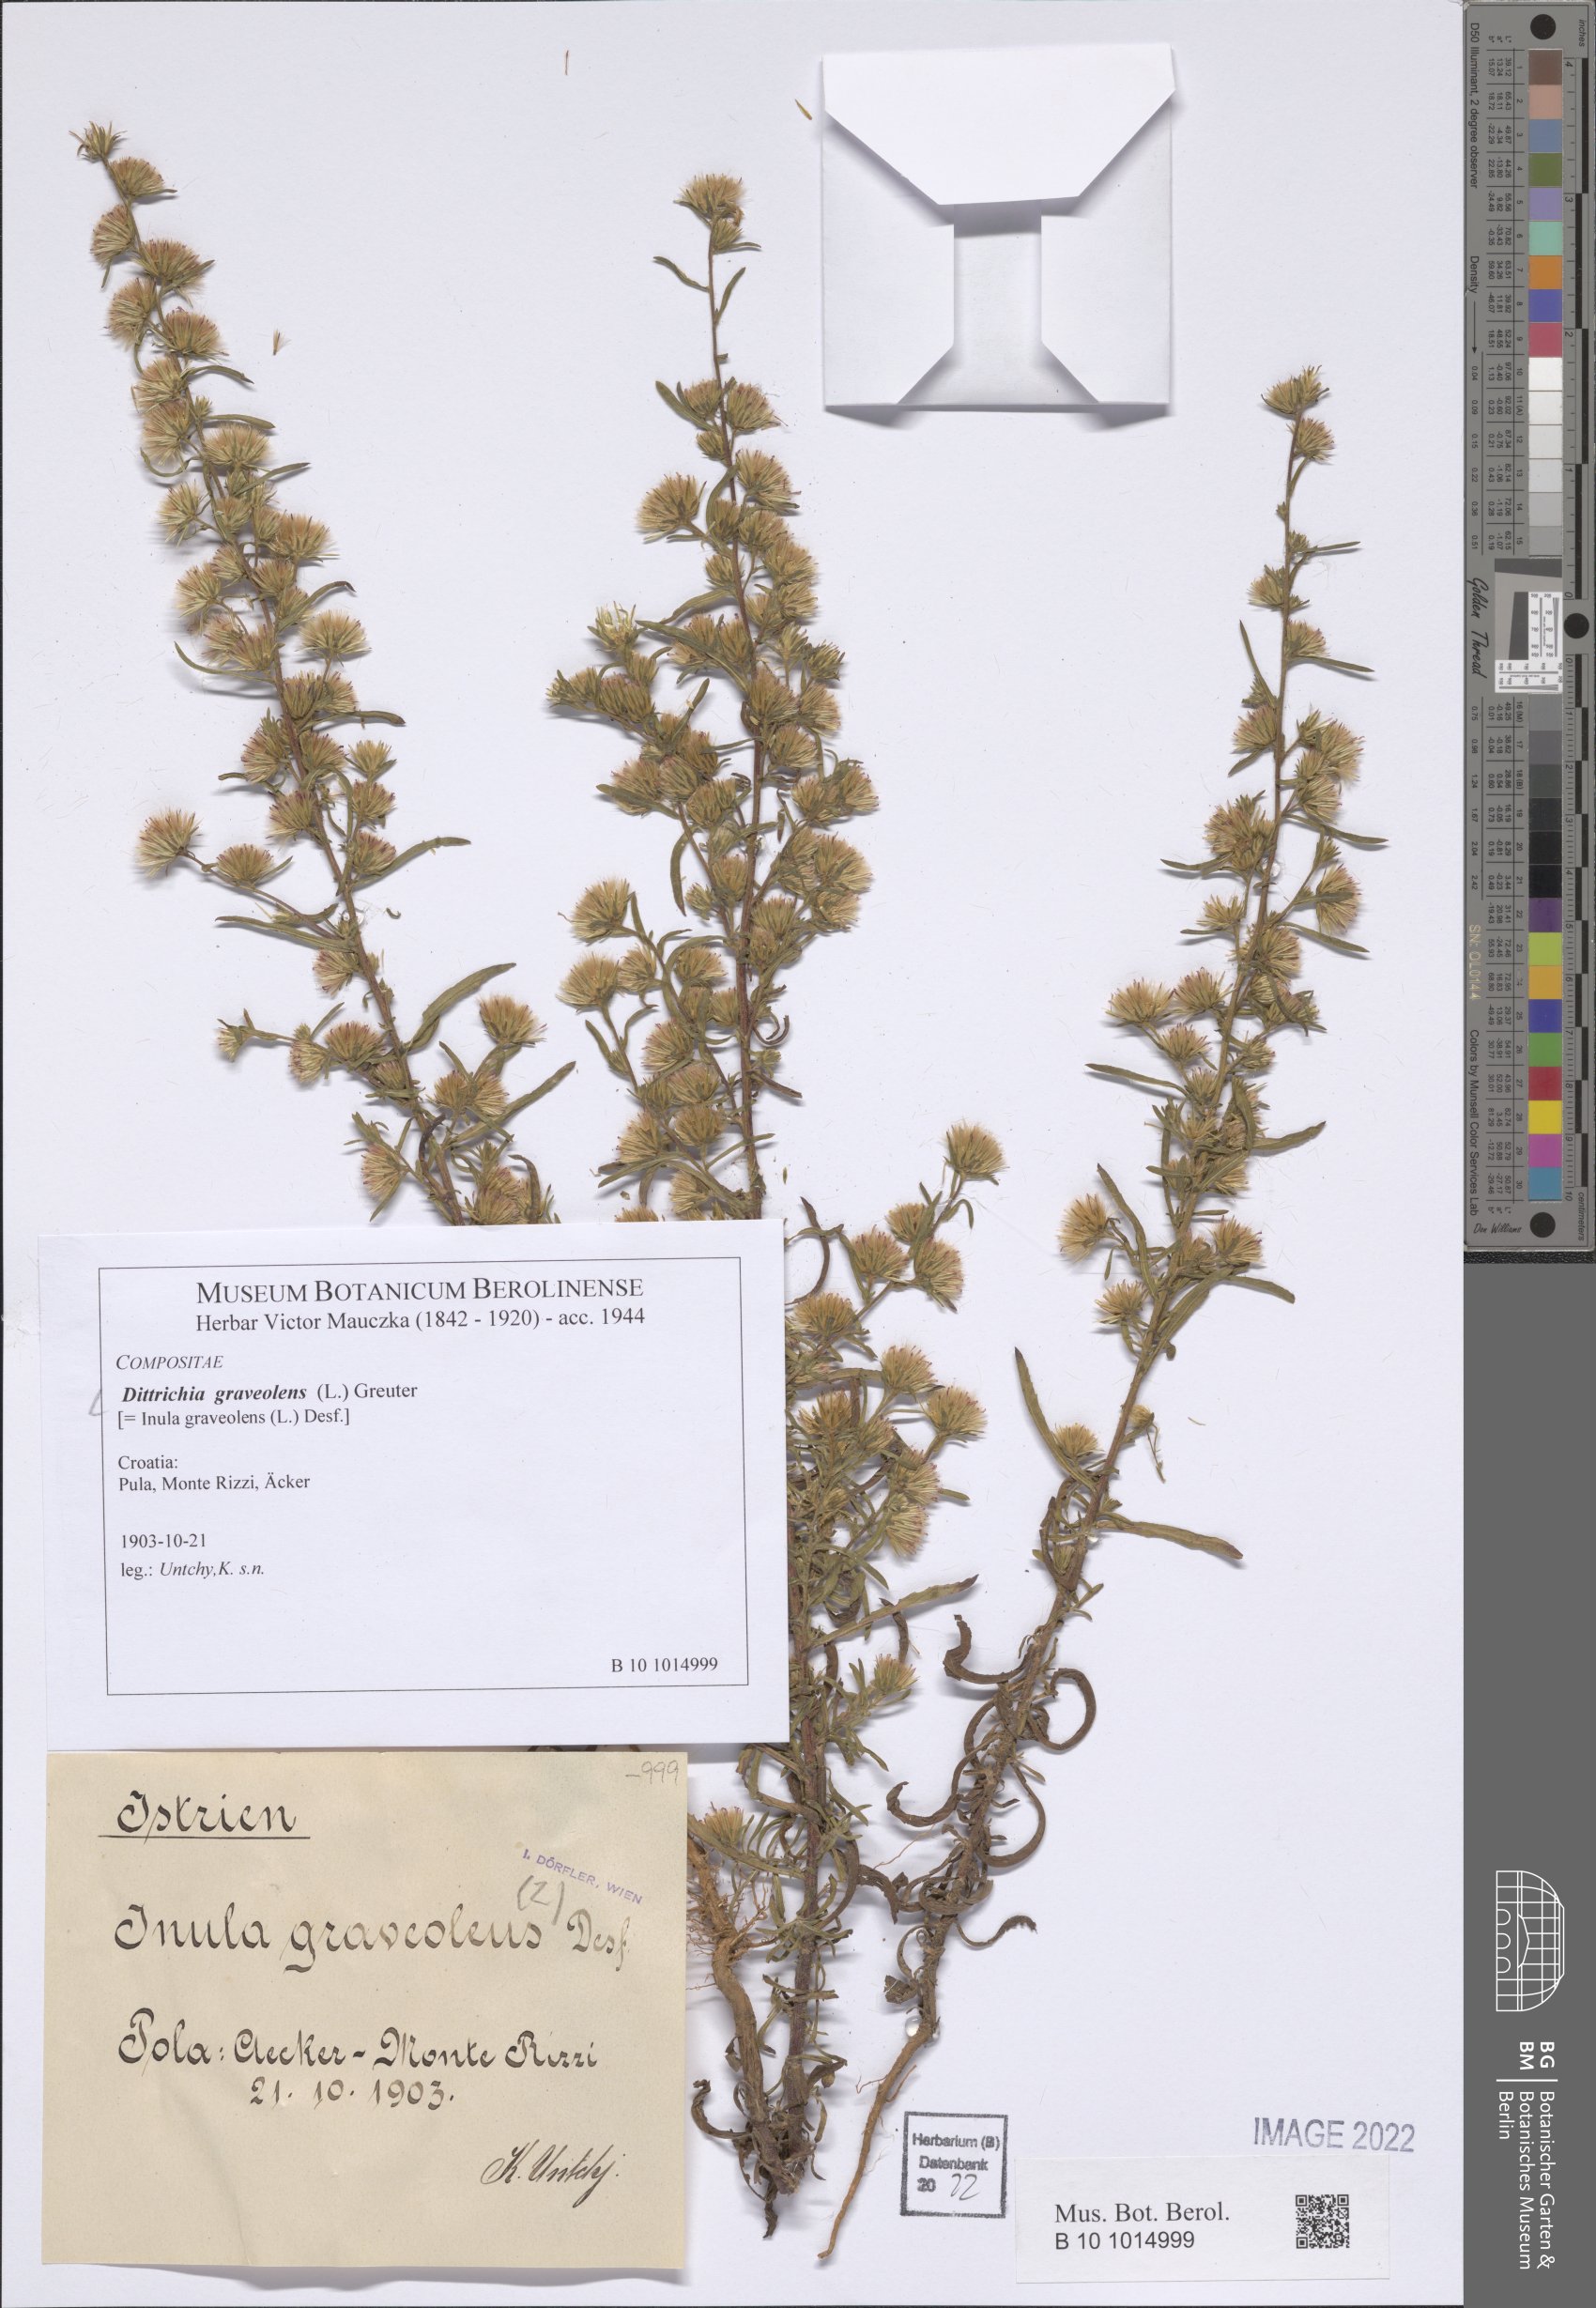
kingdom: Plantae
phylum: Tracheophyta
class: Magnoliopsida
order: Asterales
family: Asteraceae
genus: Dittrichia
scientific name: Dittrichia graveolens
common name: Stinking fleabane
